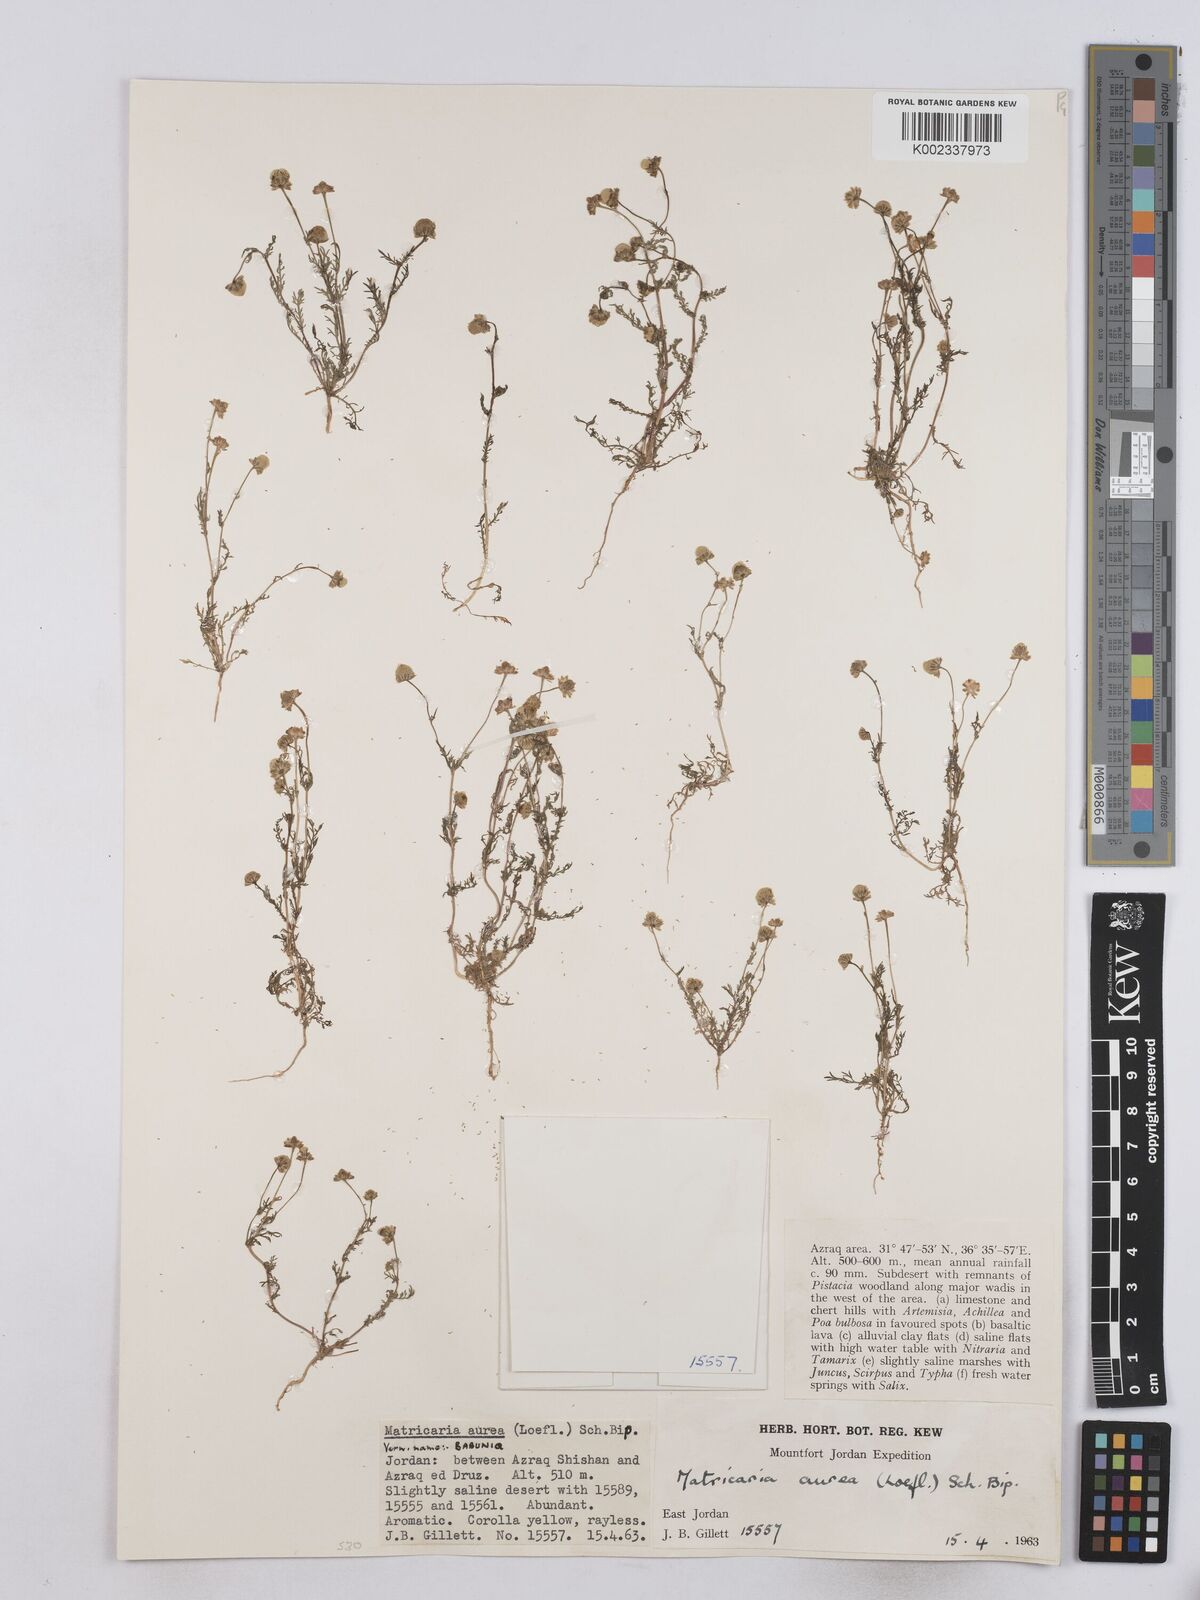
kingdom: Plantae
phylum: Tracheophyta
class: Magnoliopsida
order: Asterales
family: Asteraceae
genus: Matricaria
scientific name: Matricaria aurea
